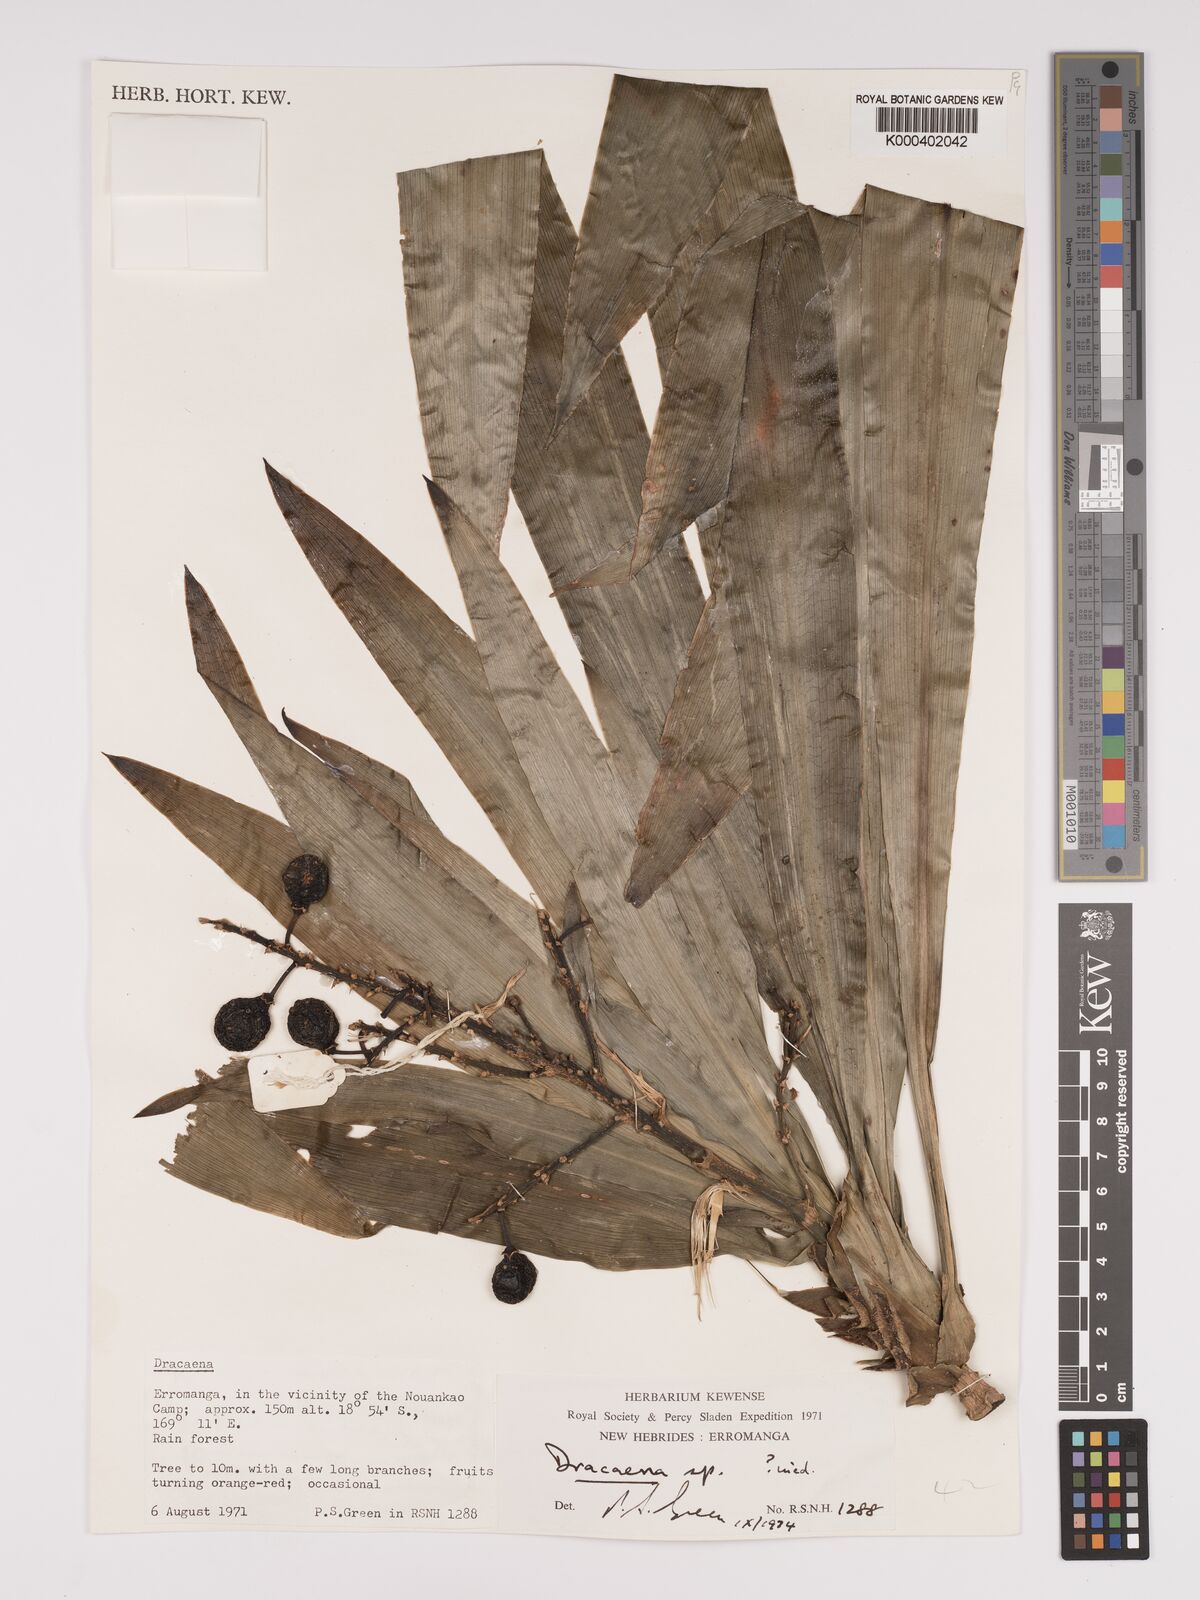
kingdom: Plantae
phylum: Tracheophyta
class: Liliopsida
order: Asparagales
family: Asparagaceae
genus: Dracaena
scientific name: Dracaena
